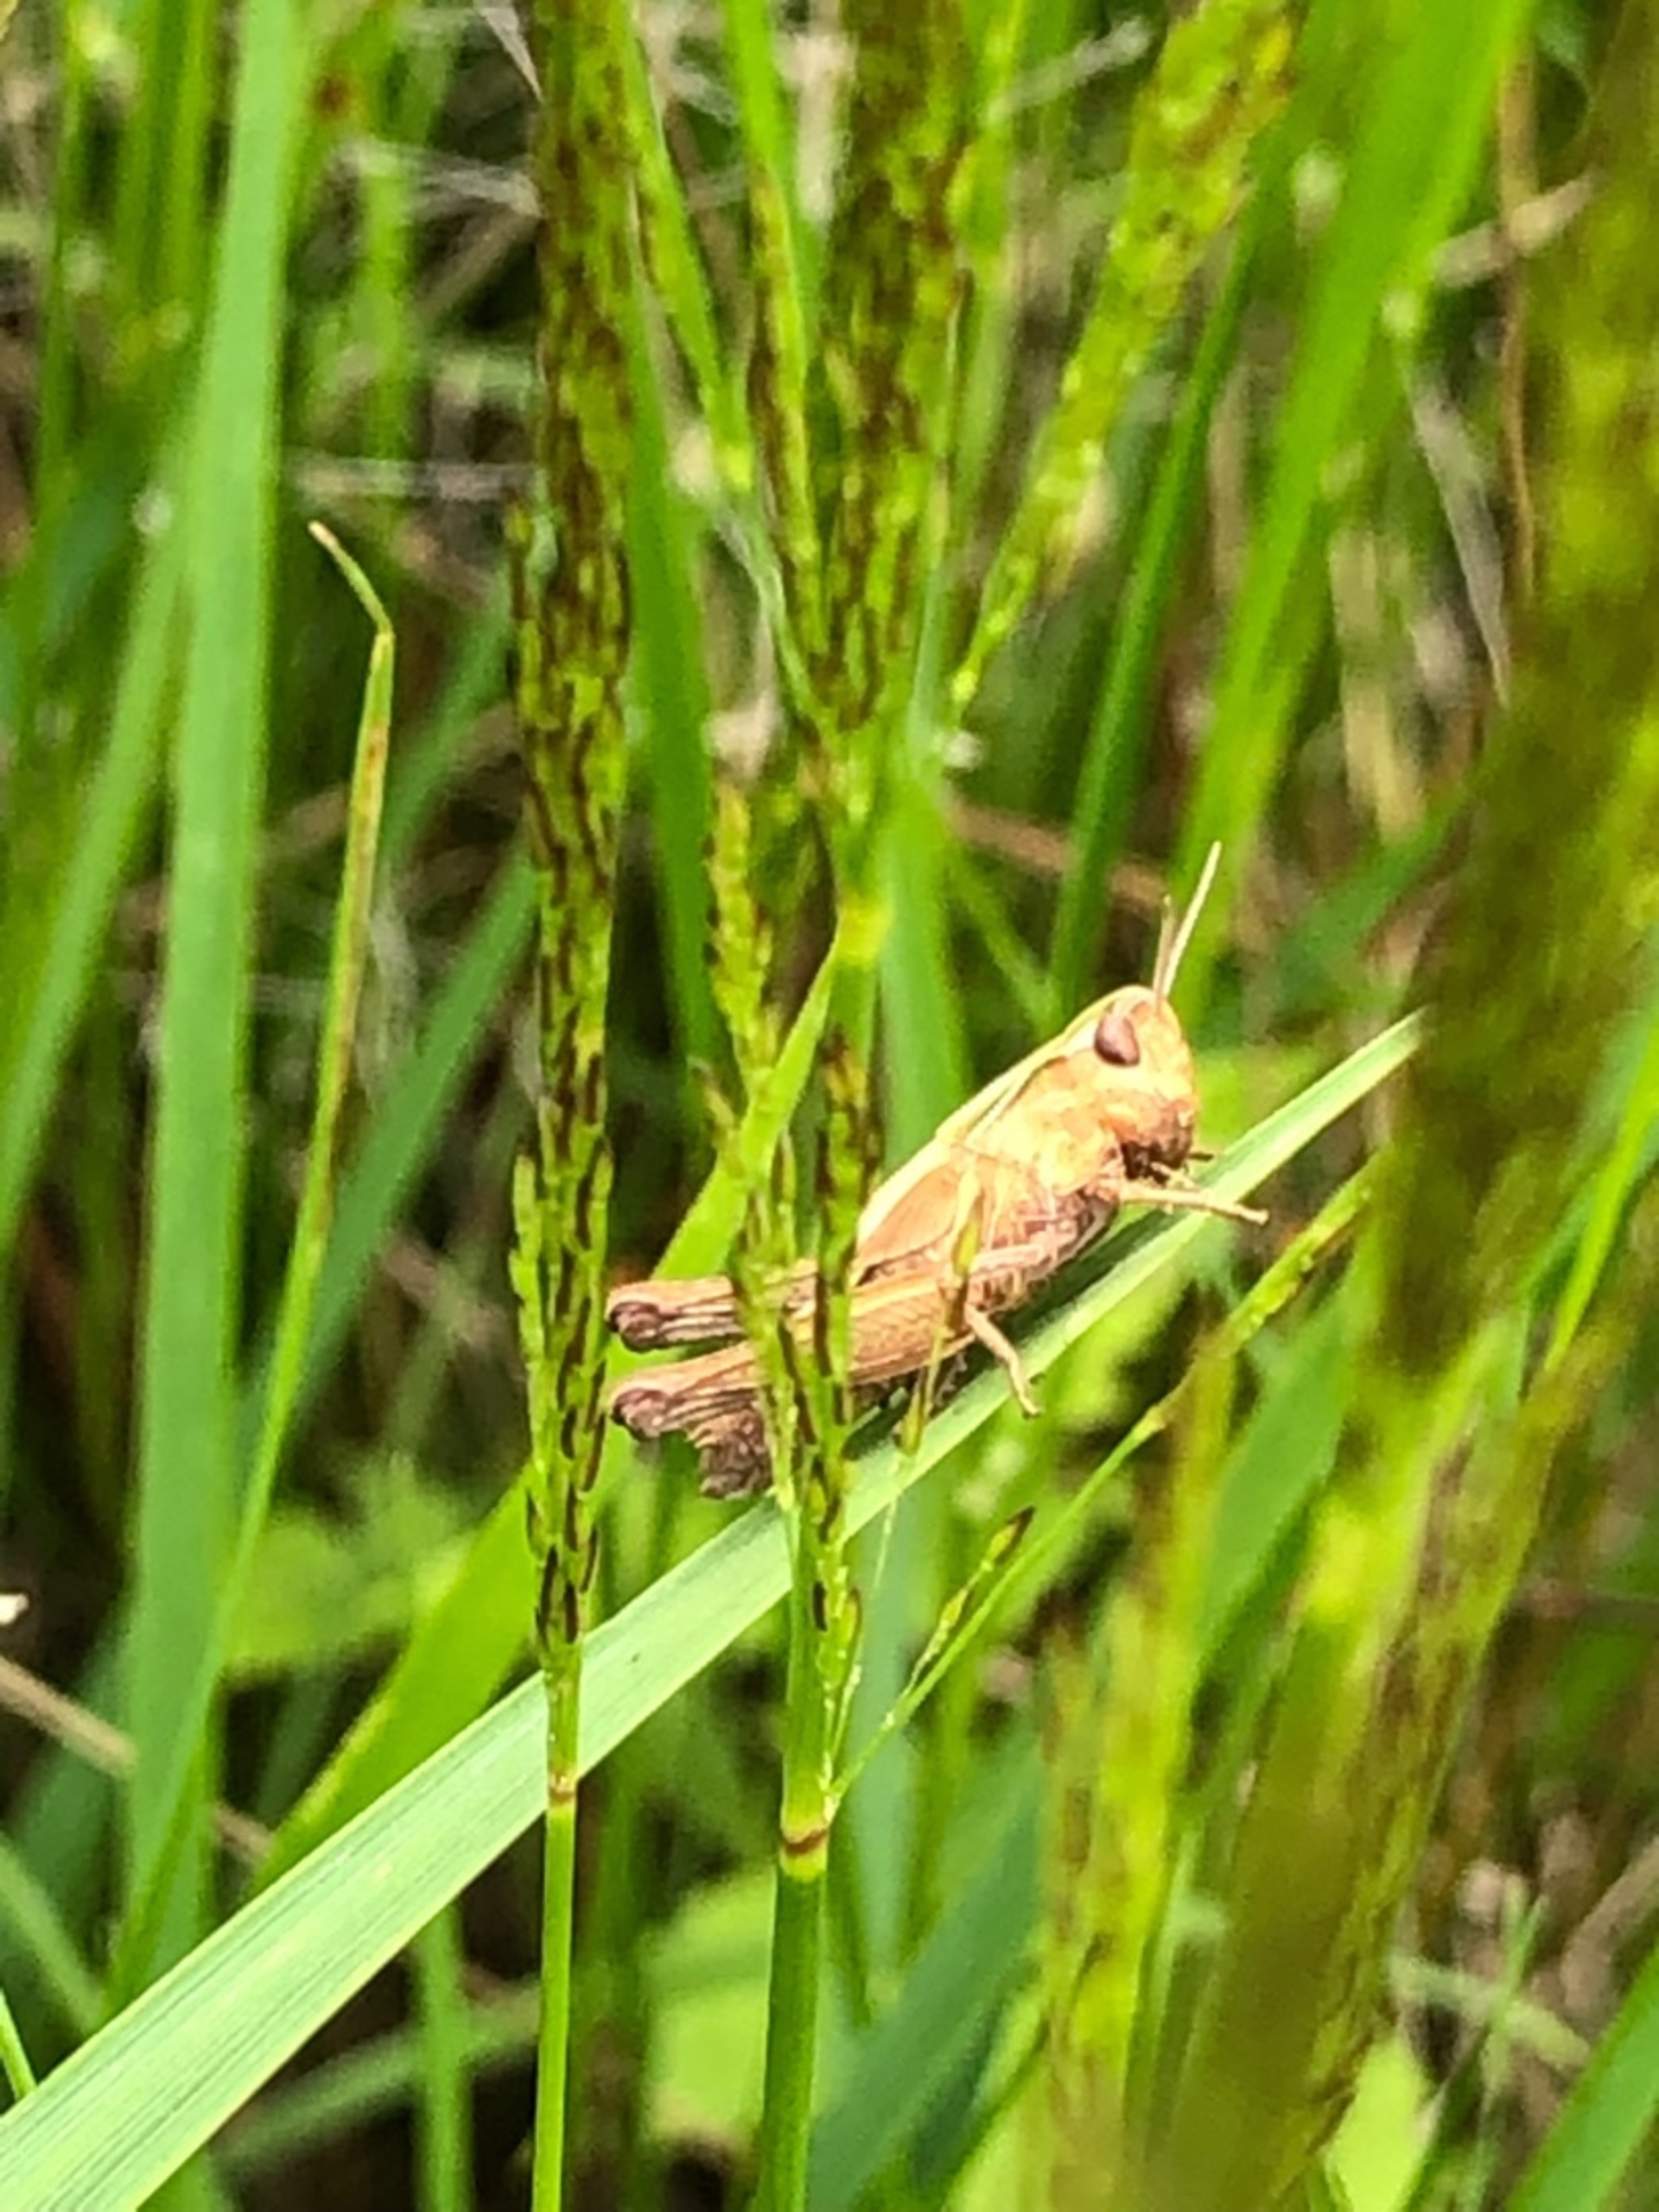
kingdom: Animalia
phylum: Arthropoda
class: Insecta
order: Orthoptera
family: Acrididae
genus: Omocestus
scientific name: Omocestus viridulus
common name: Lynggræshoppe
